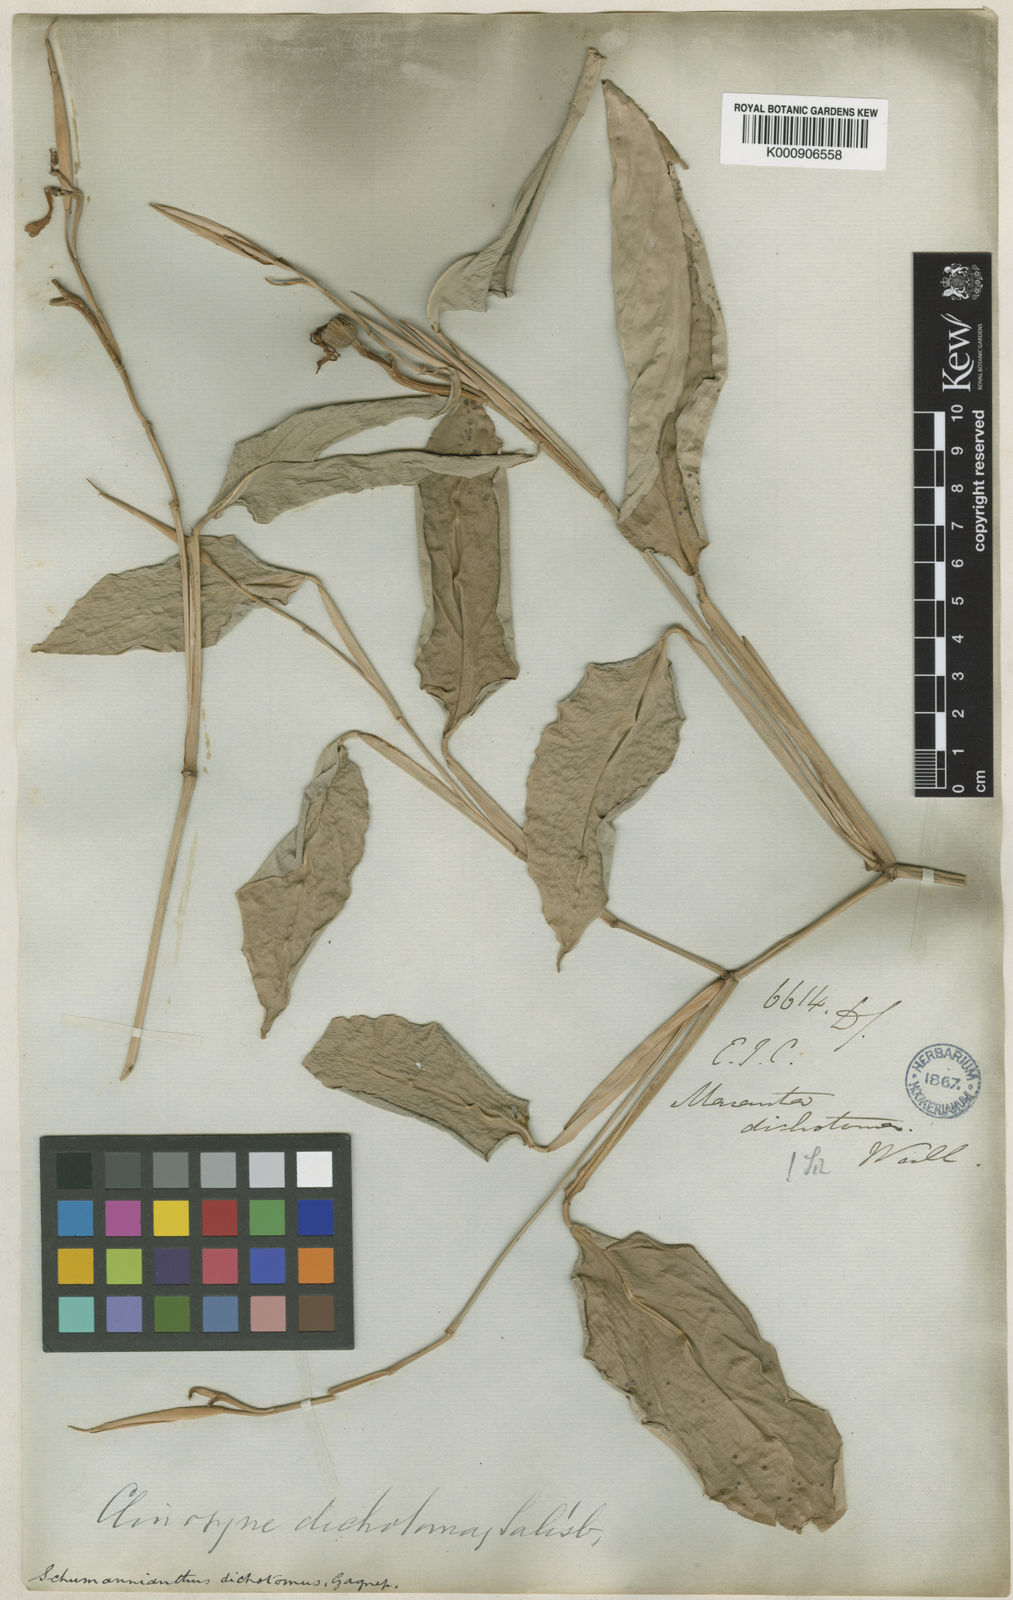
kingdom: Plantae
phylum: Tracheophyta
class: Liliopsida
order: Zingiberales
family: Marantaceae
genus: Schumannianthus
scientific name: Schumannianthus benthamianus
